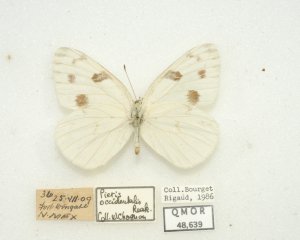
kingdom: Animalia
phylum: Arthropoda
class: Insecta
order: Lepidoptera
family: Pieridae
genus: Pontia
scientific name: Pontia protodice
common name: Checkered White
